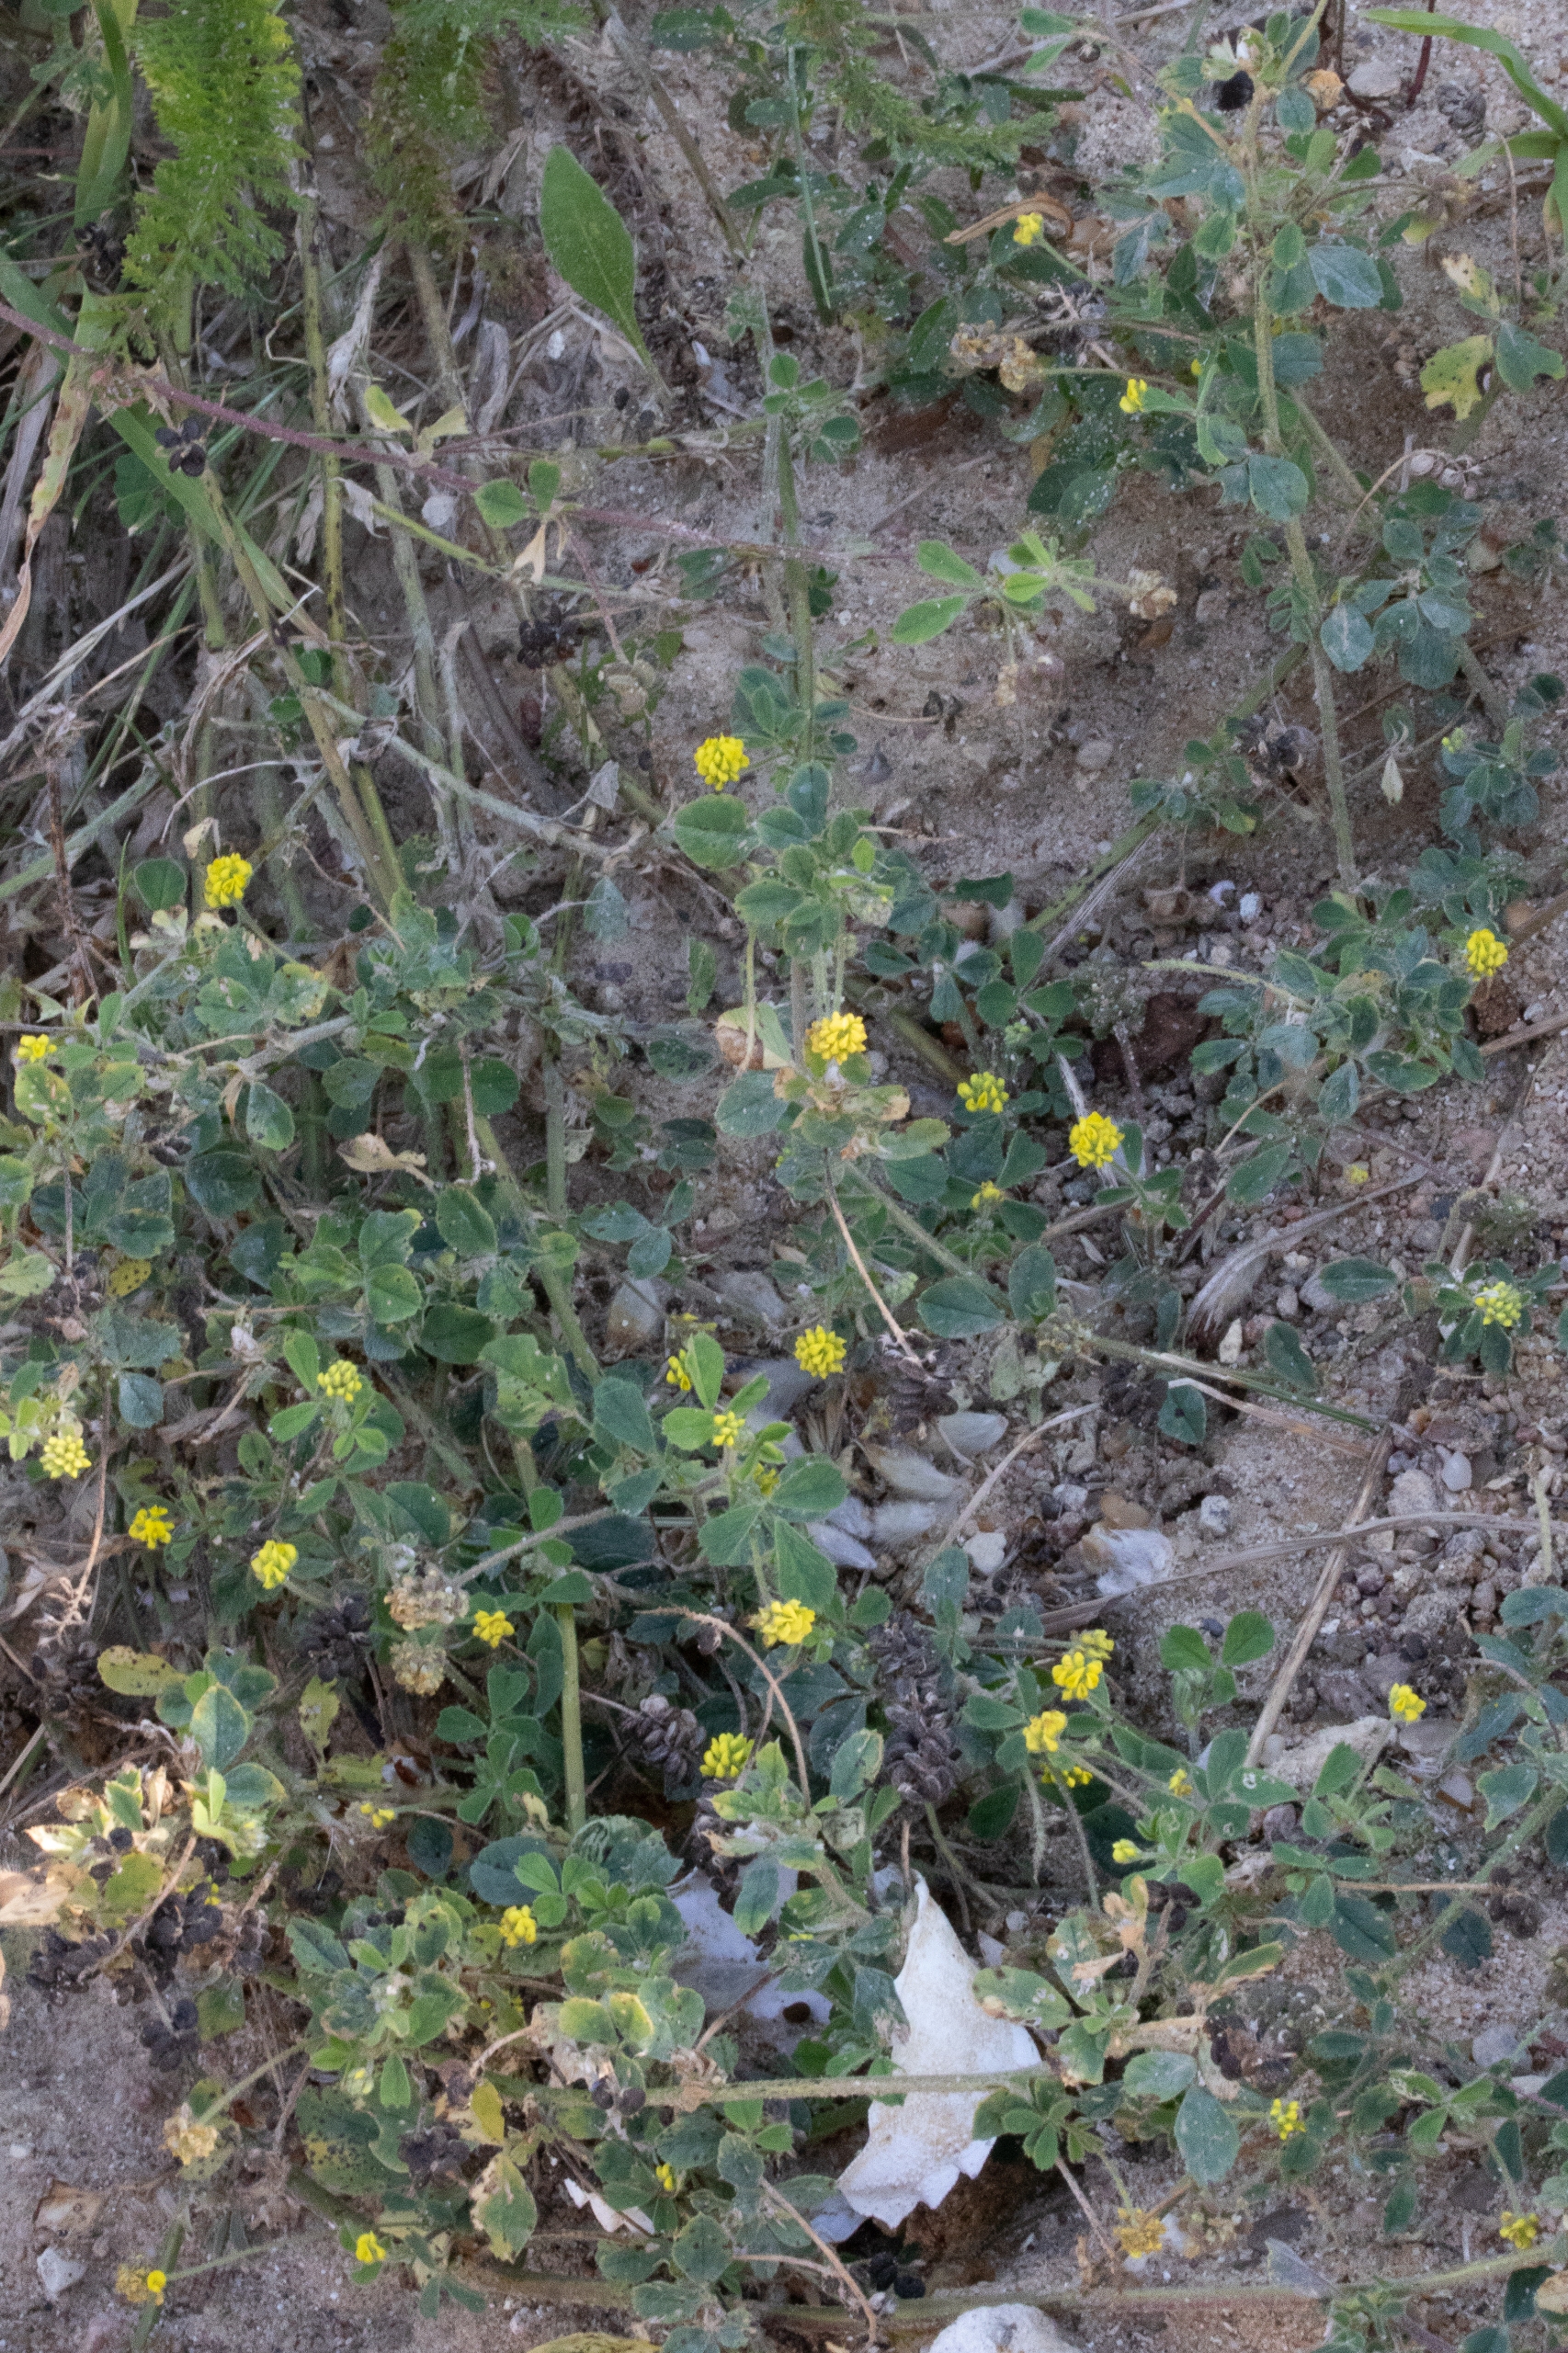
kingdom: Plantae
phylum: Tracheophyta
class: Magnoliopsida
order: Fabales
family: Fabaceae
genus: Medicago
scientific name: Medicago lupulina
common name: Humle-sneglebælg
